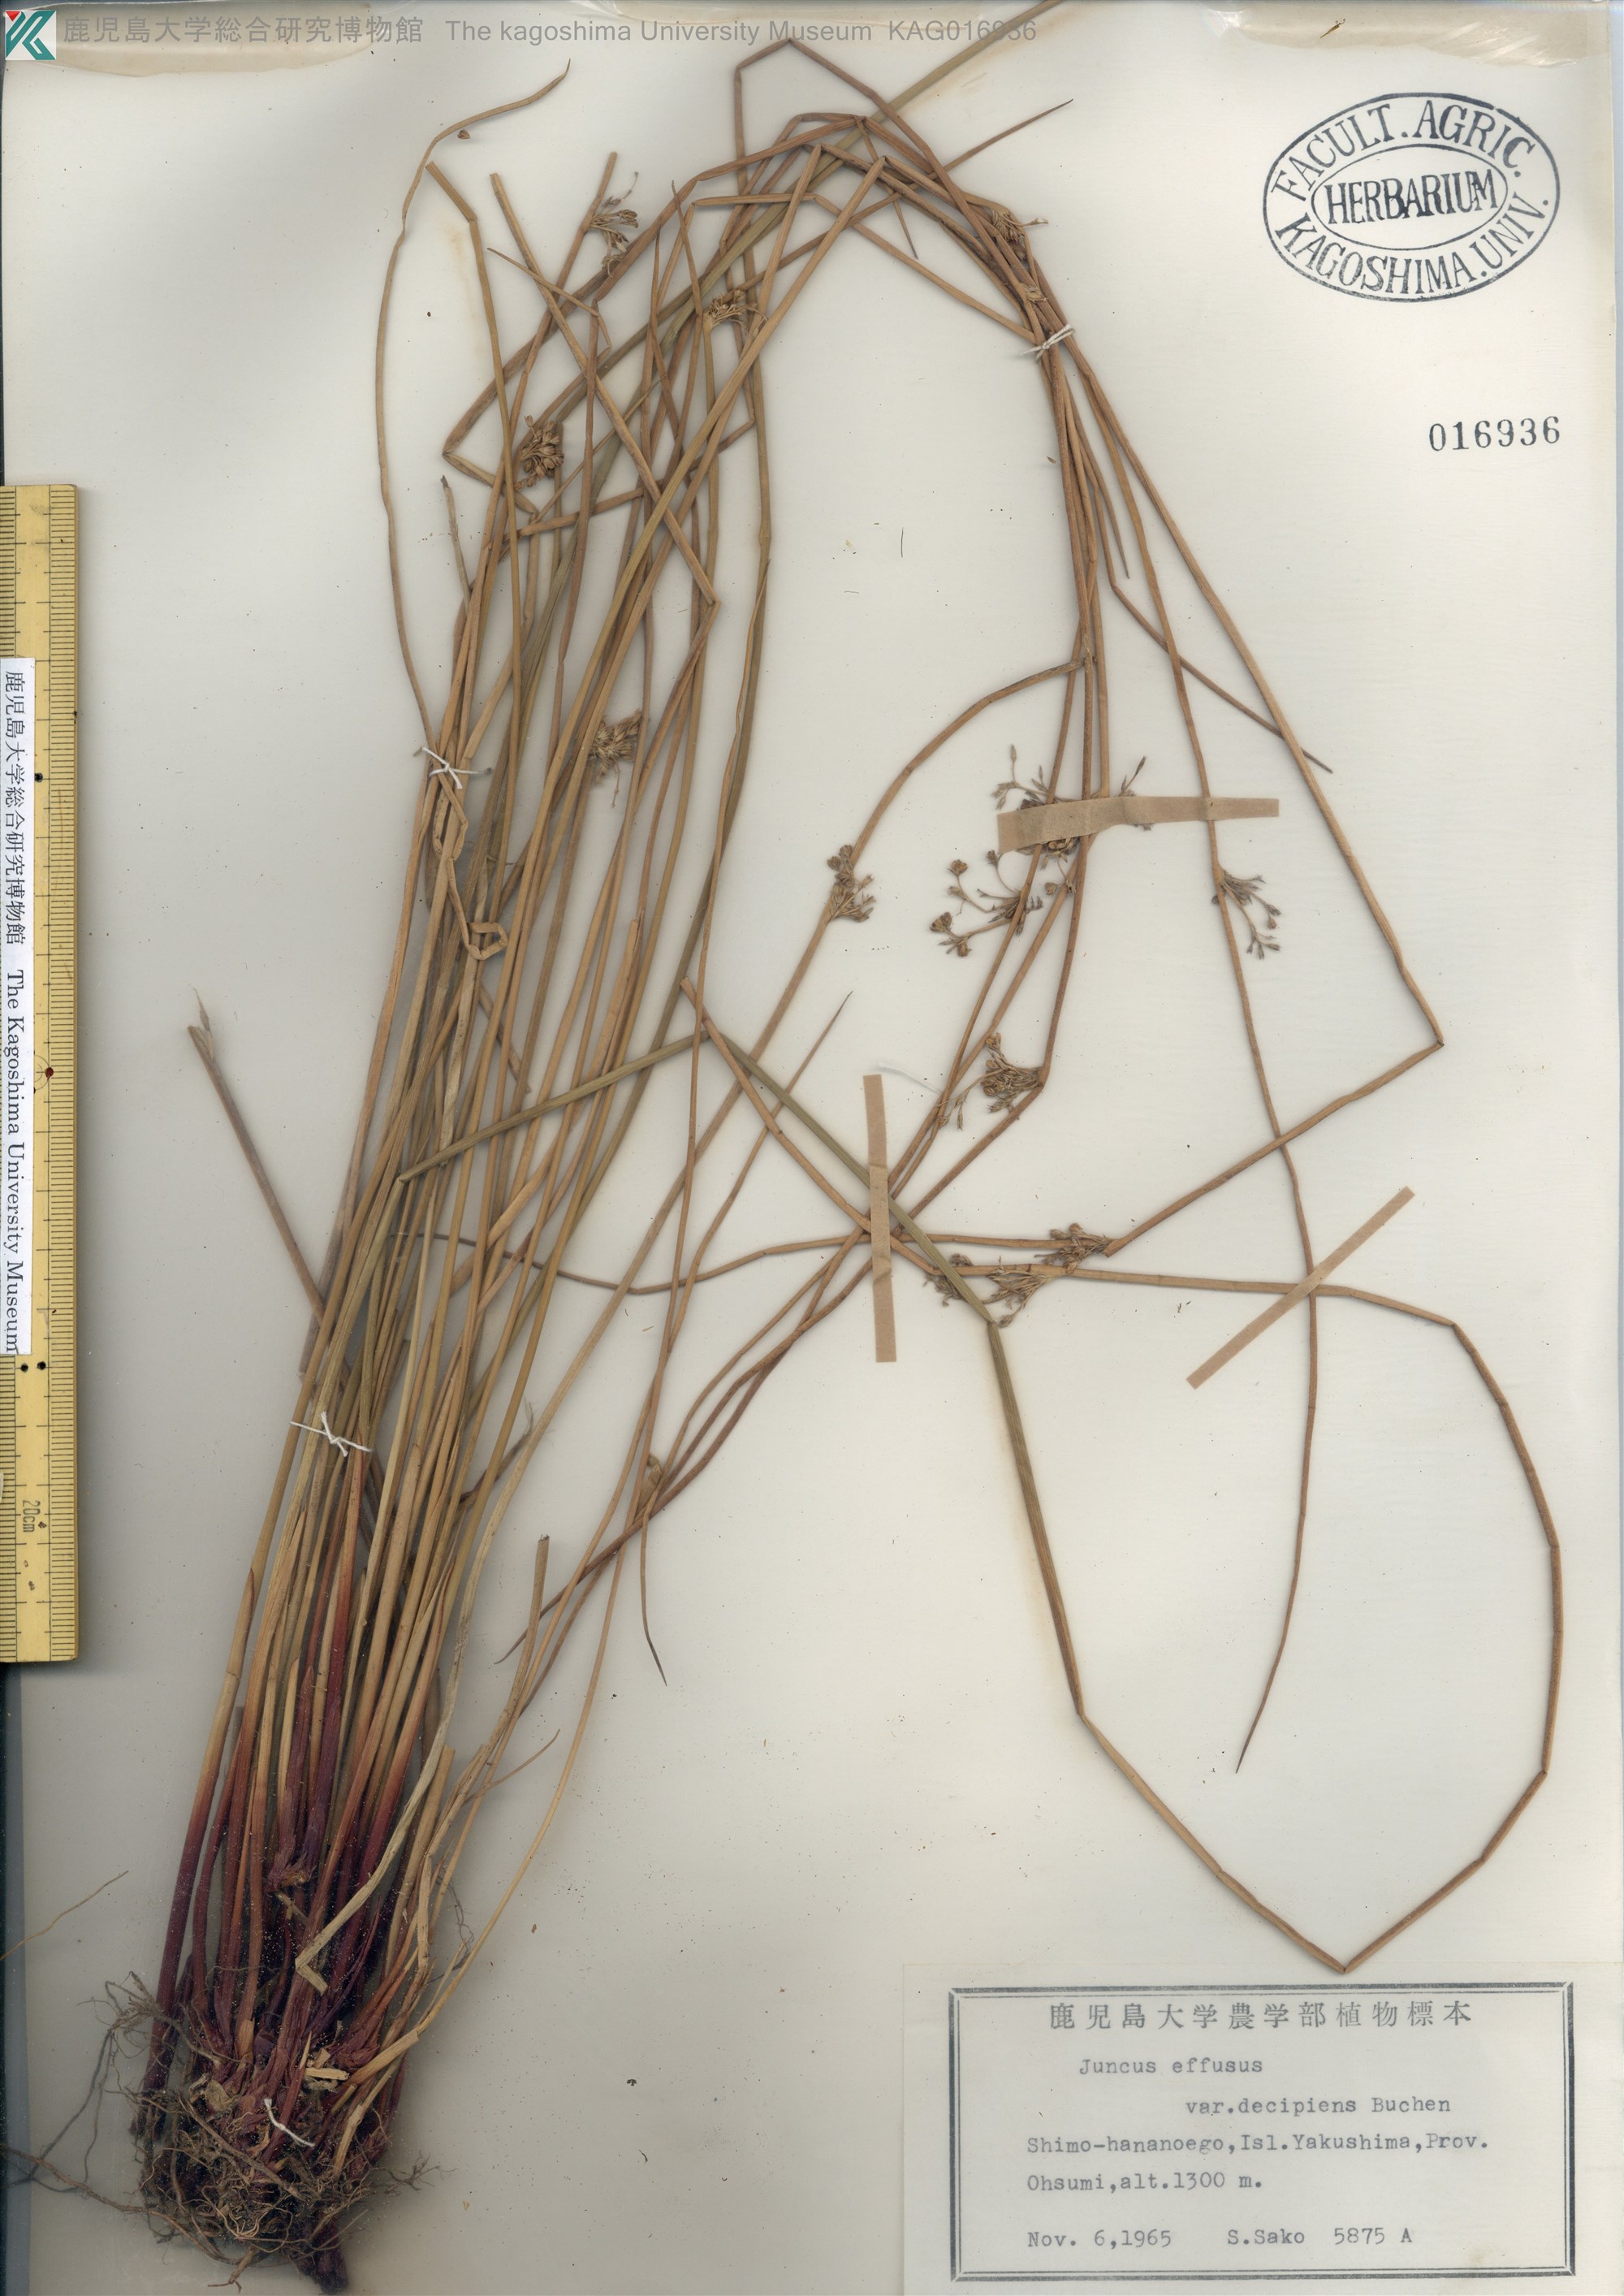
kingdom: Plantae
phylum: Tracheophyta
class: Liliopsida
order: Poales
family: Juncaceae
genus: Juncus
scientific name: Juncus decipiens
